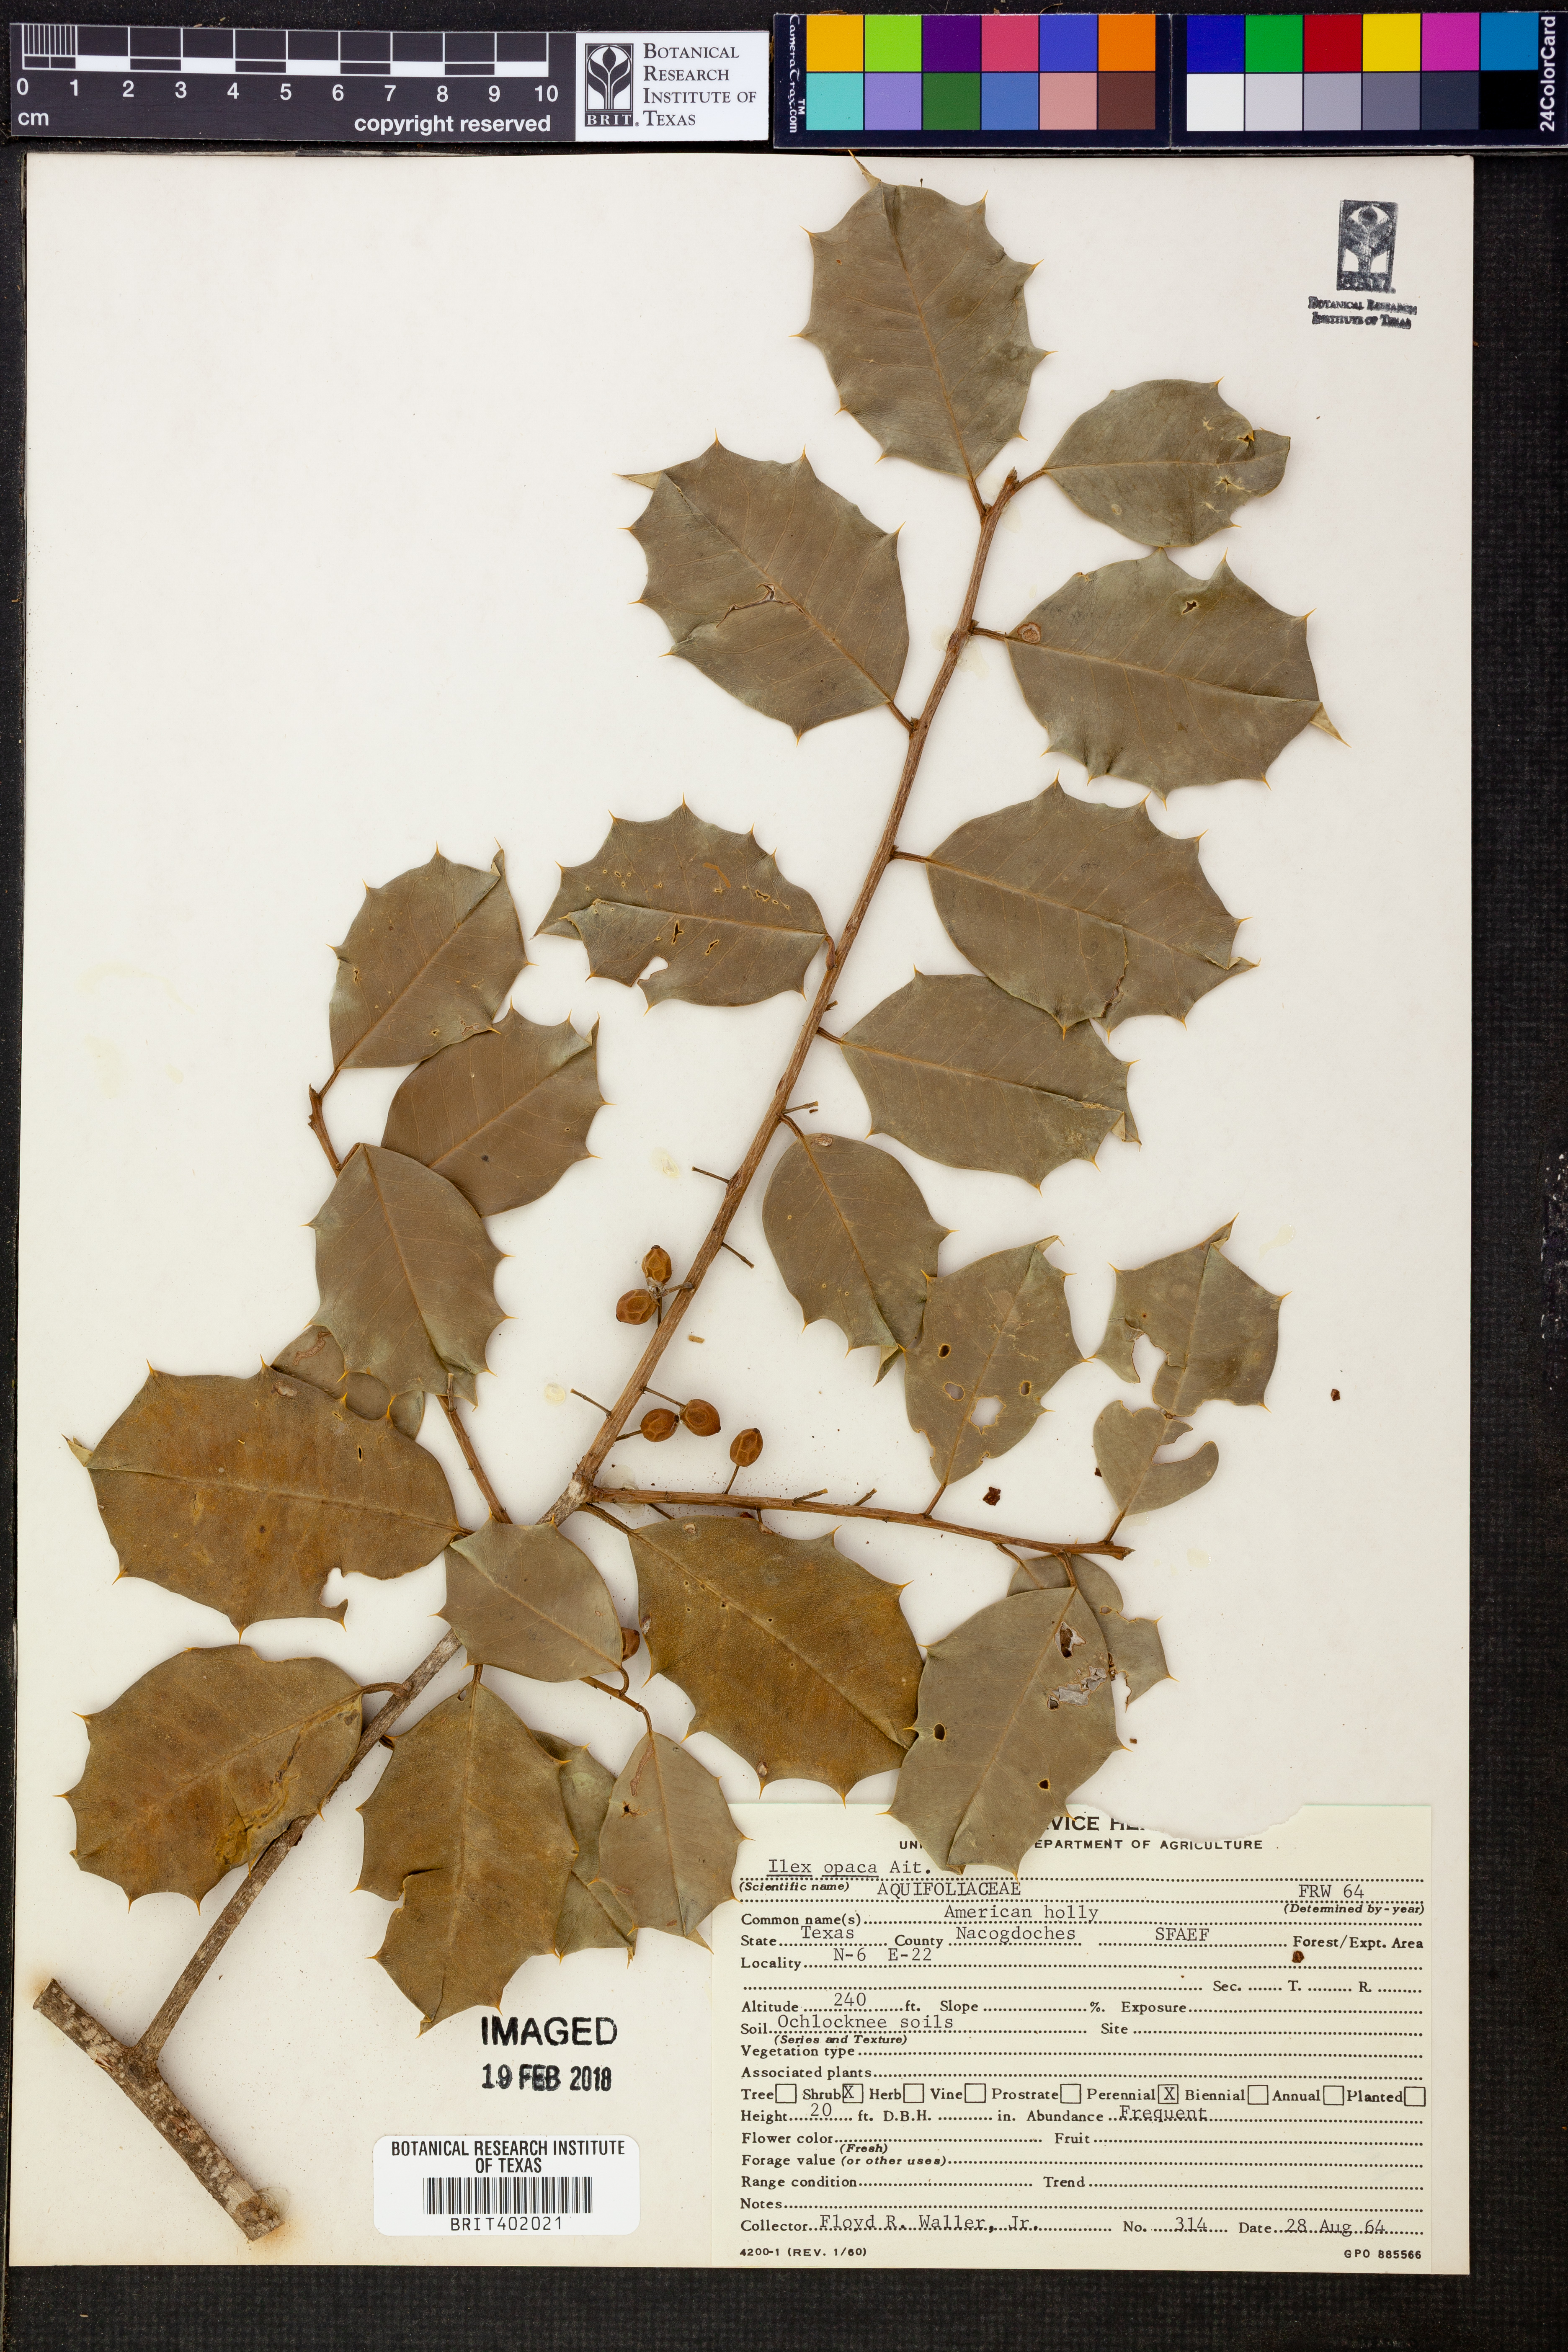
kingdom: Plantae
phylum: Tracheophyta
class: Magnoliopsida
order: Aquifoliales
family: Aquifoliaceae
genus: Ilex
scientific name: Ilex opaca
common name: American holly
